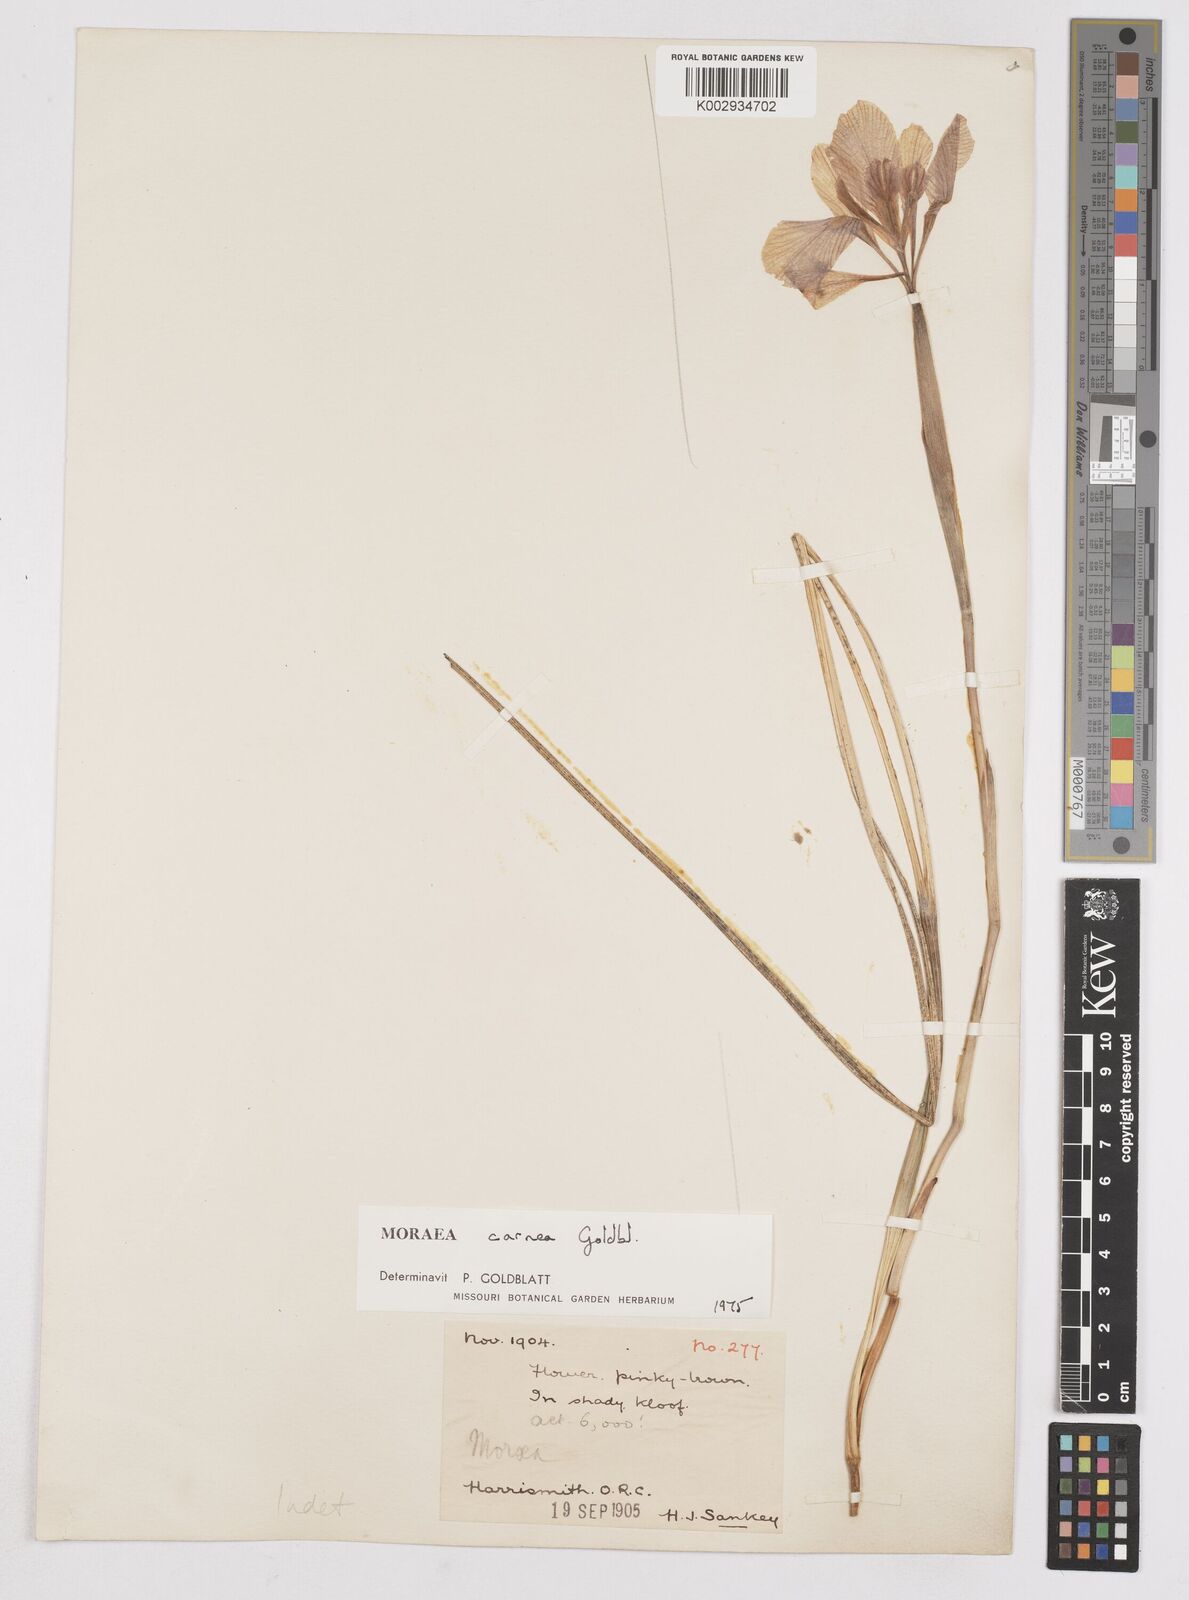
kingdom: Plantae
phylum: Tracheophyta
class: Liliopsida
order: Asparagales
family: Iridaceae
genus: Moraea
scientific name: Moraea carnea
